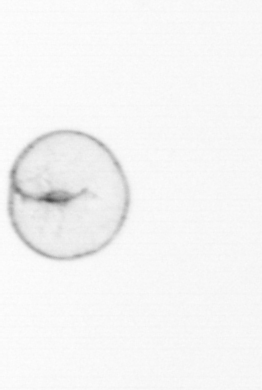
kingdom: Chromista
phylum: Myzozoa
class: Dinophyceae
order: Noctilucales
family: Noctilucaceae
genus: Noctiluca
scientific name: Noctiluca scintillans
